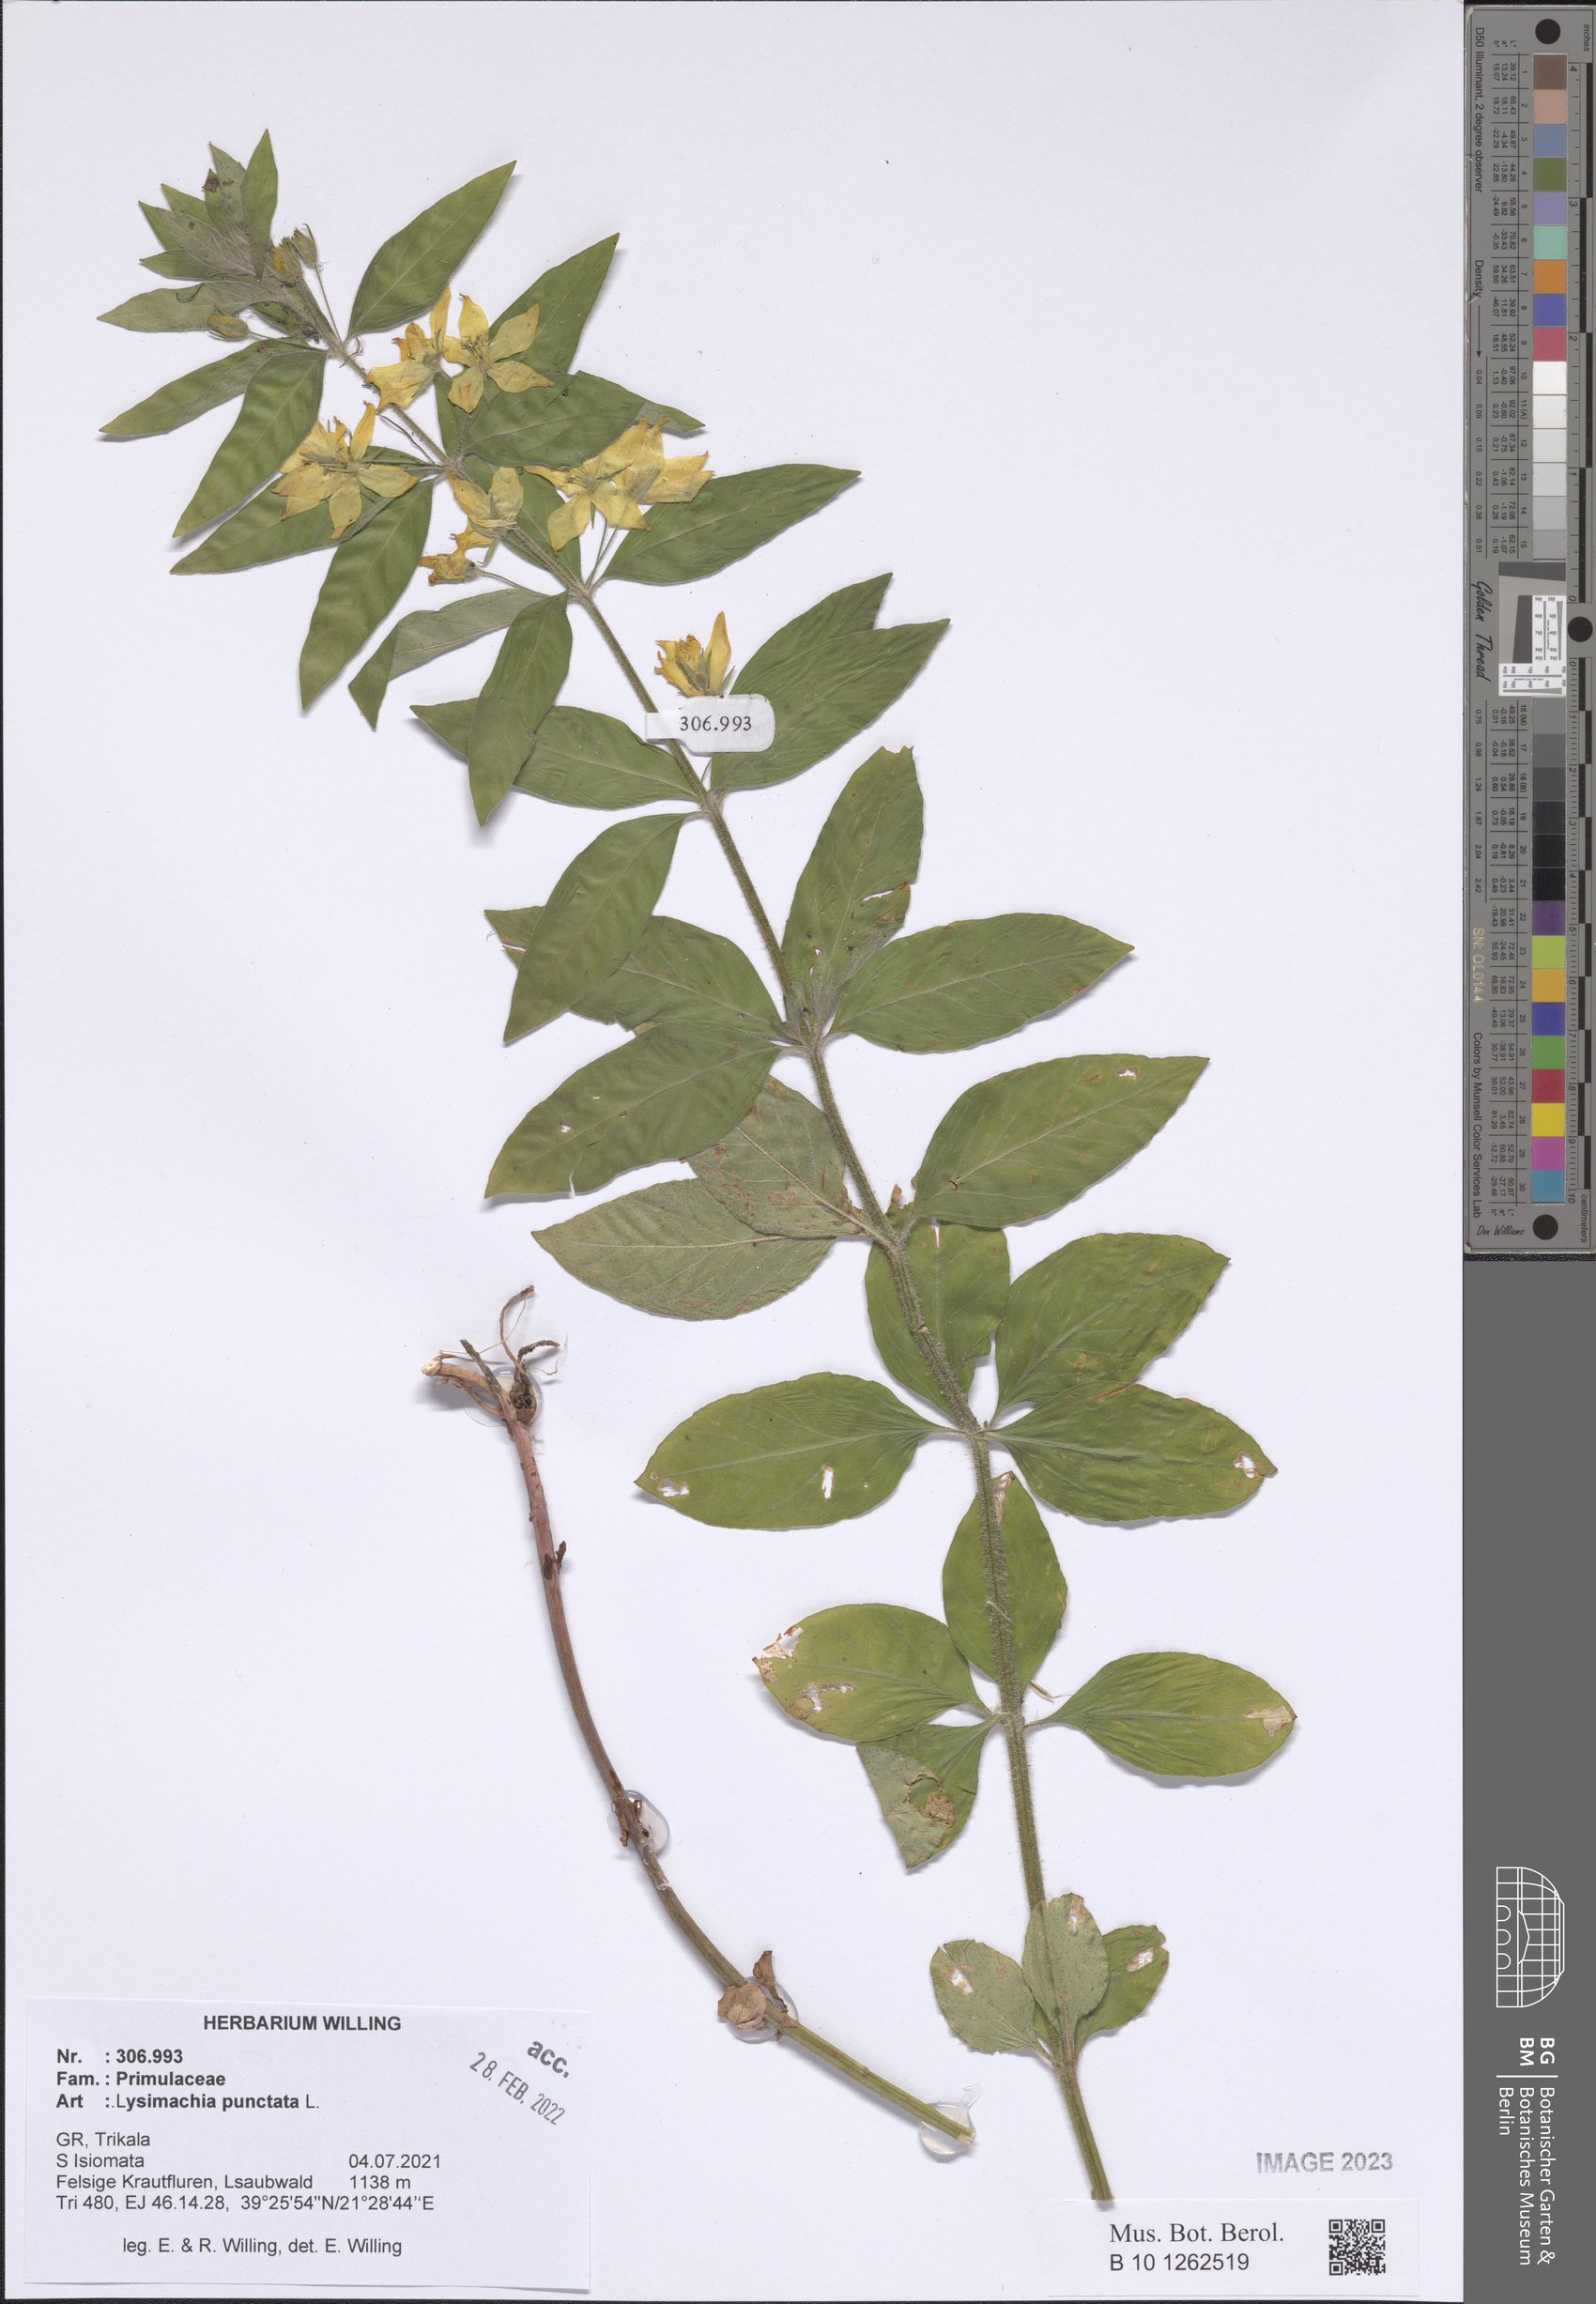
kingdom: Plantae
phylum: Tracheophyta
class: Magnoliopsida
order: Ericales
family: Primulaceae
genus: Lysimachia
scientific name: Lysimachia punctata
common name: Dotted loosestrife
